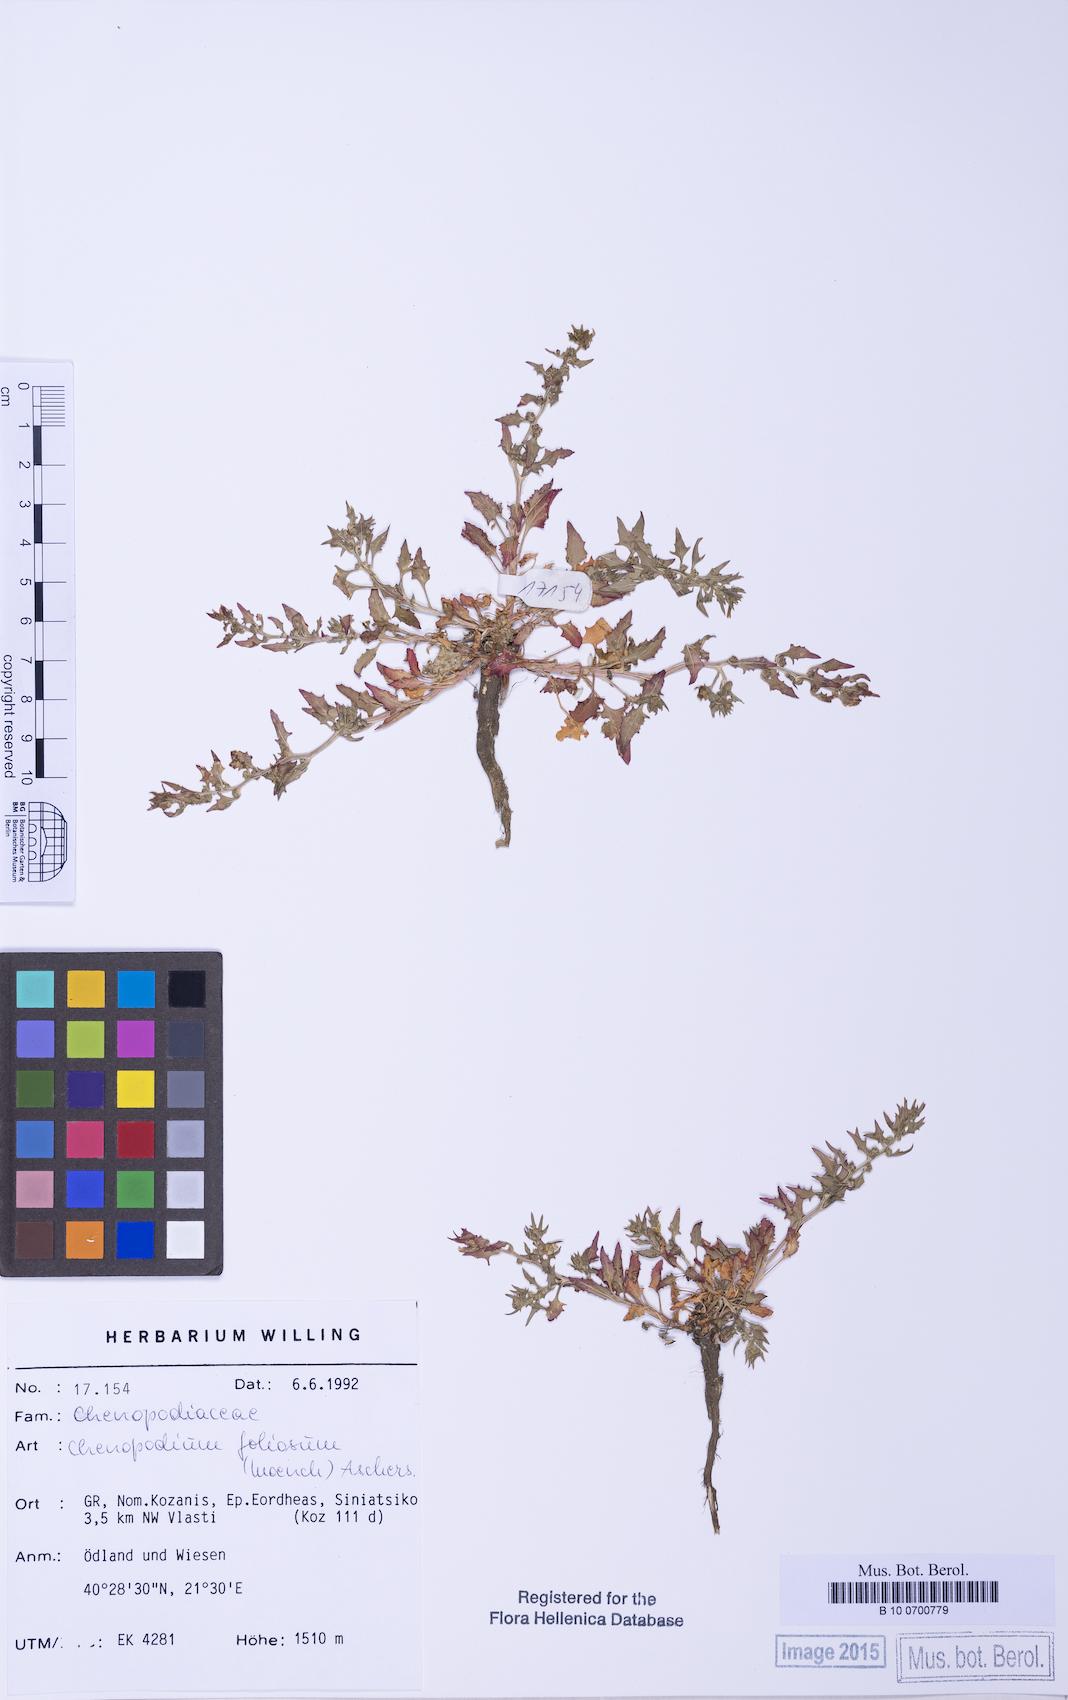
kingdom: Plantae
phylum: Tracheophyta
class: Magnoliopsida
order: Caryophyllales
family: Amaranthaceae
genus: Blitum
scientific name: Blitum virgatum
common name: Strawberry goosefoot
